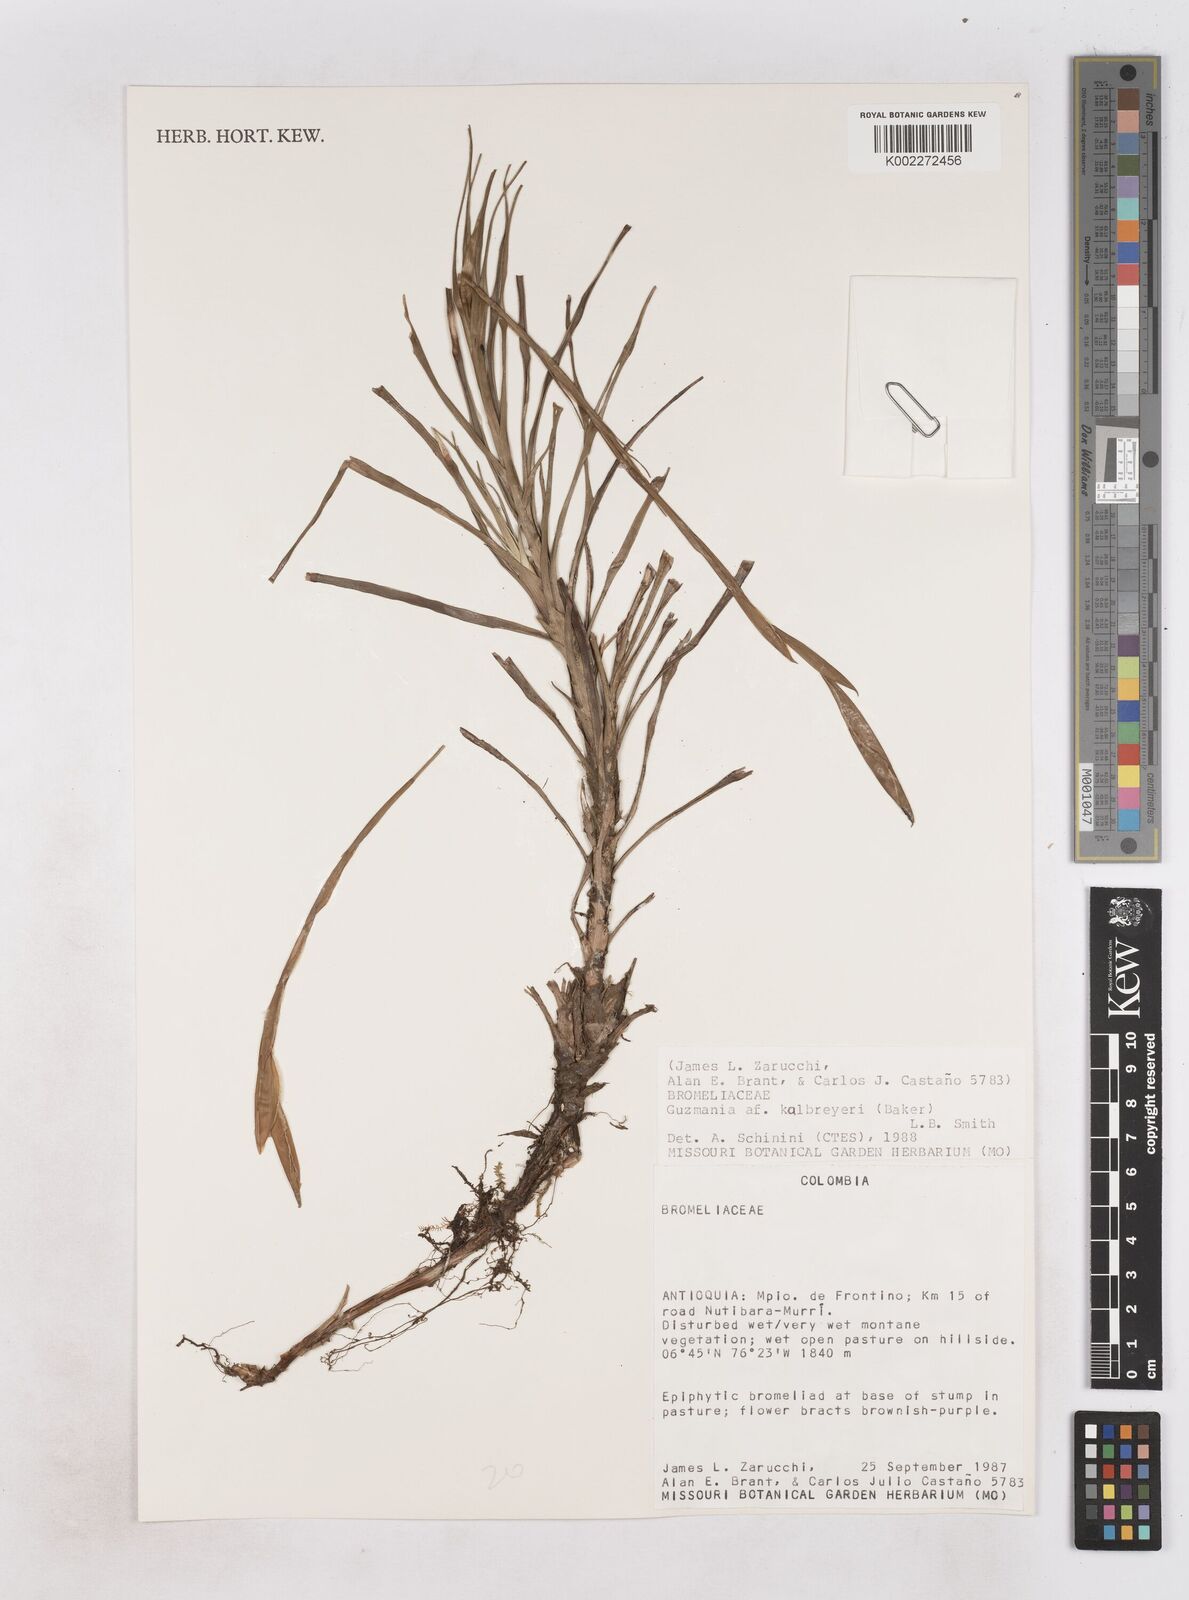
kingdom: Plantae
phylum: Tracheophyta
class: Liliopsida
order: Poales
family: Bromeliaceae
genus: Guzmania
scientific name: Guzmania kalbreyeri
